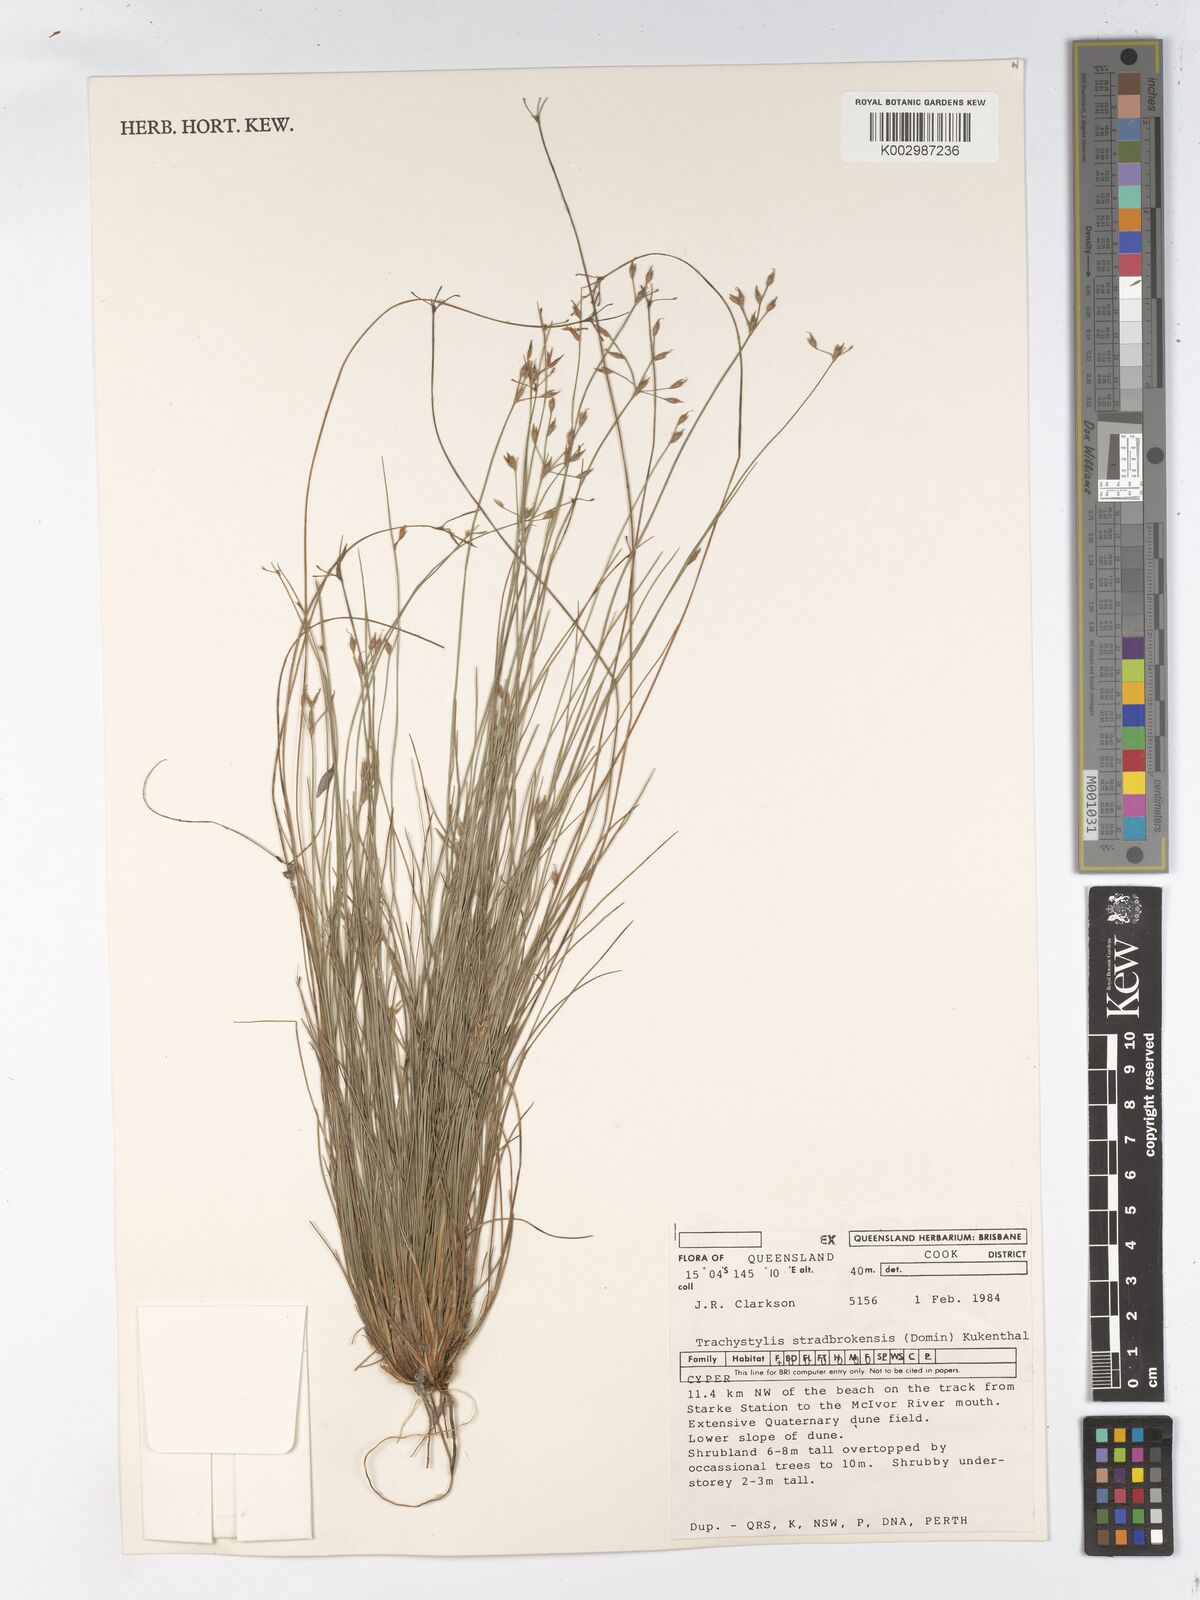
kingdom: Plantae
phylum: Tracheophyta
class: Liliopsida
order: Poales
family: Cyperaceae
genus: Trachystylis
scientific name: Trachystylis stradbrokensis
